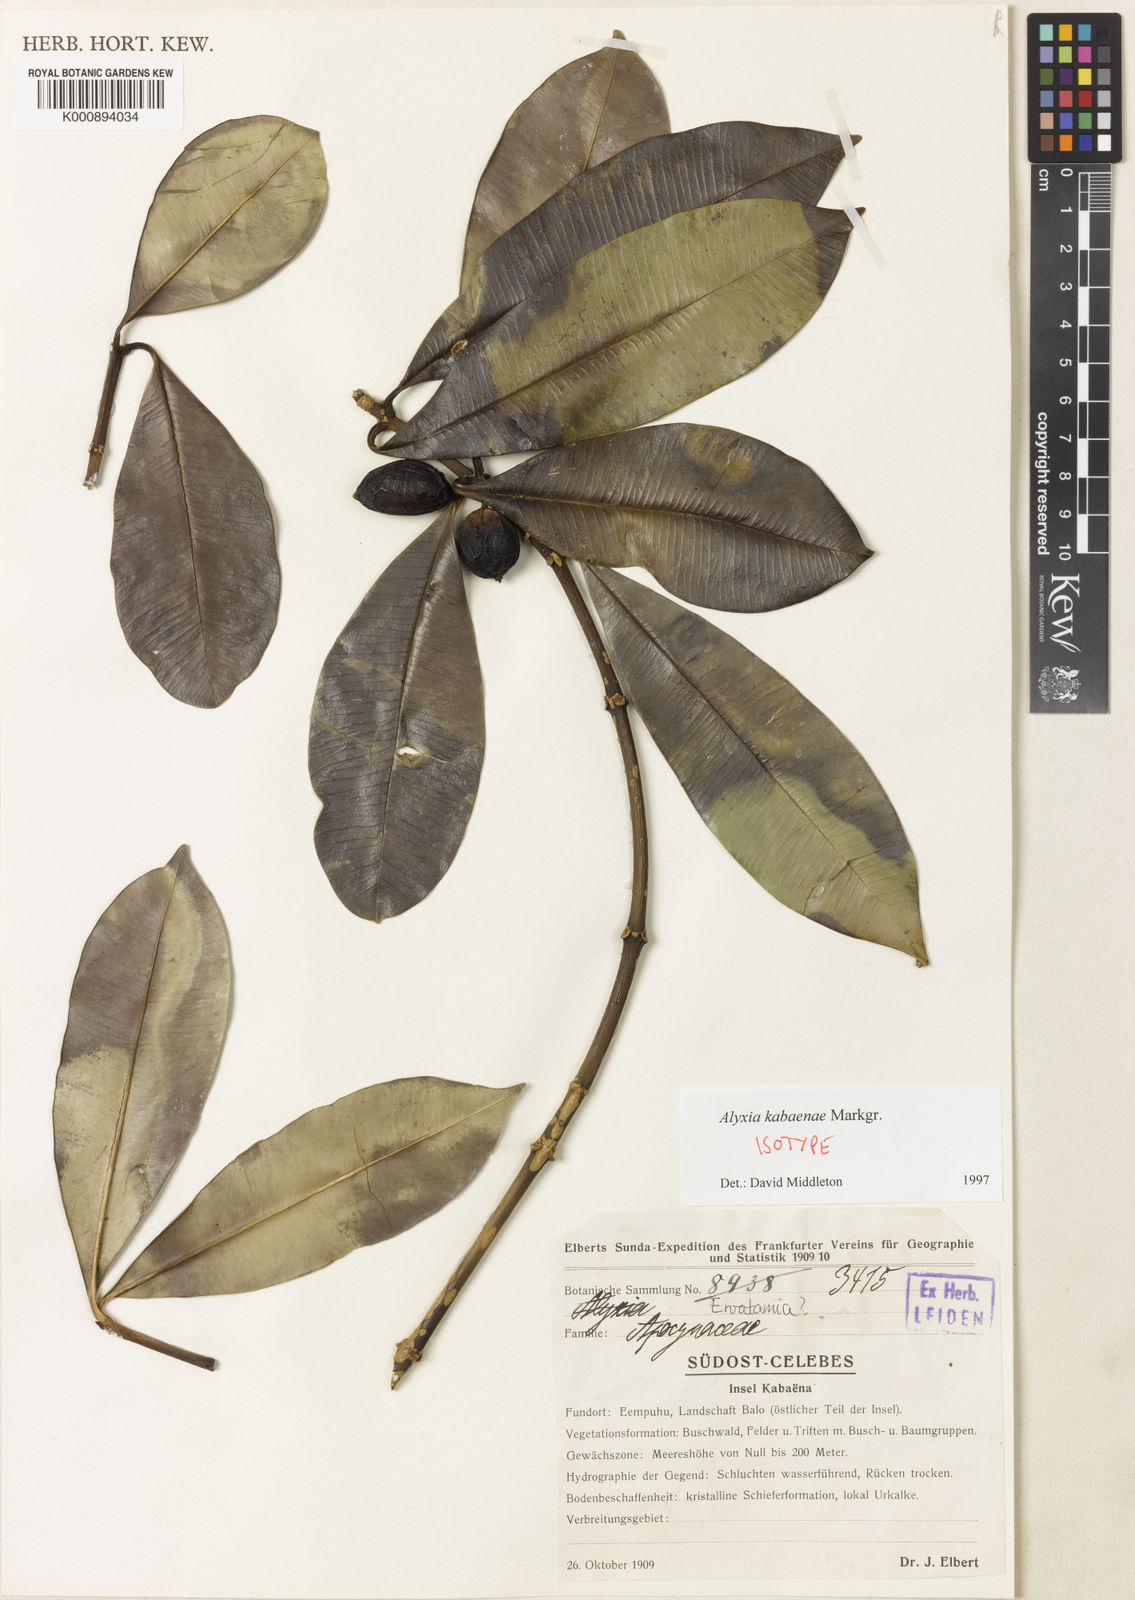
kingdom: Plantae
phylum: Tracheophyta
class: Magnoliopsida
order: Gentianales
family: Apocynaceae
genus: Alyxia
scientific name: Alyxia kabaenae
